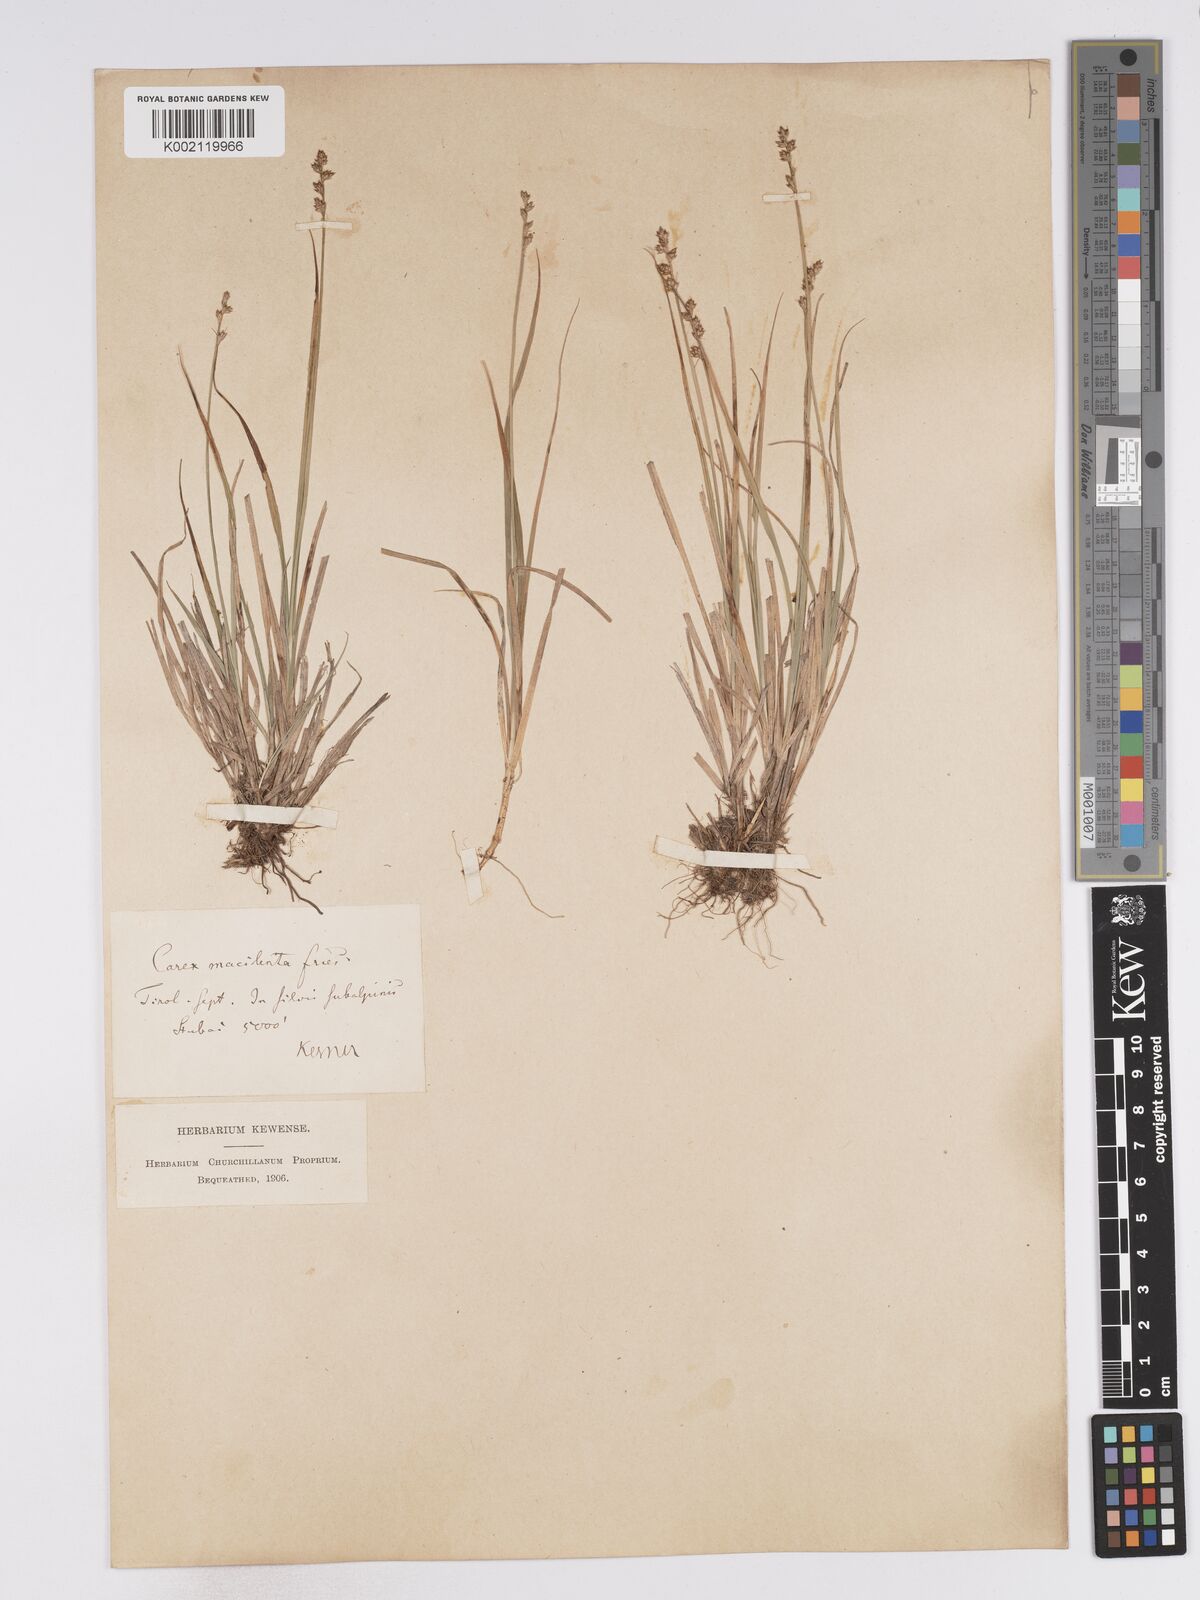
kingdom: Plantae
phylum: Tracheophyta
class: Liliopsida
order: Poales
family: Cyperaceae
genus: Carex
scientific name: Carex canescens
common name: White sedge
